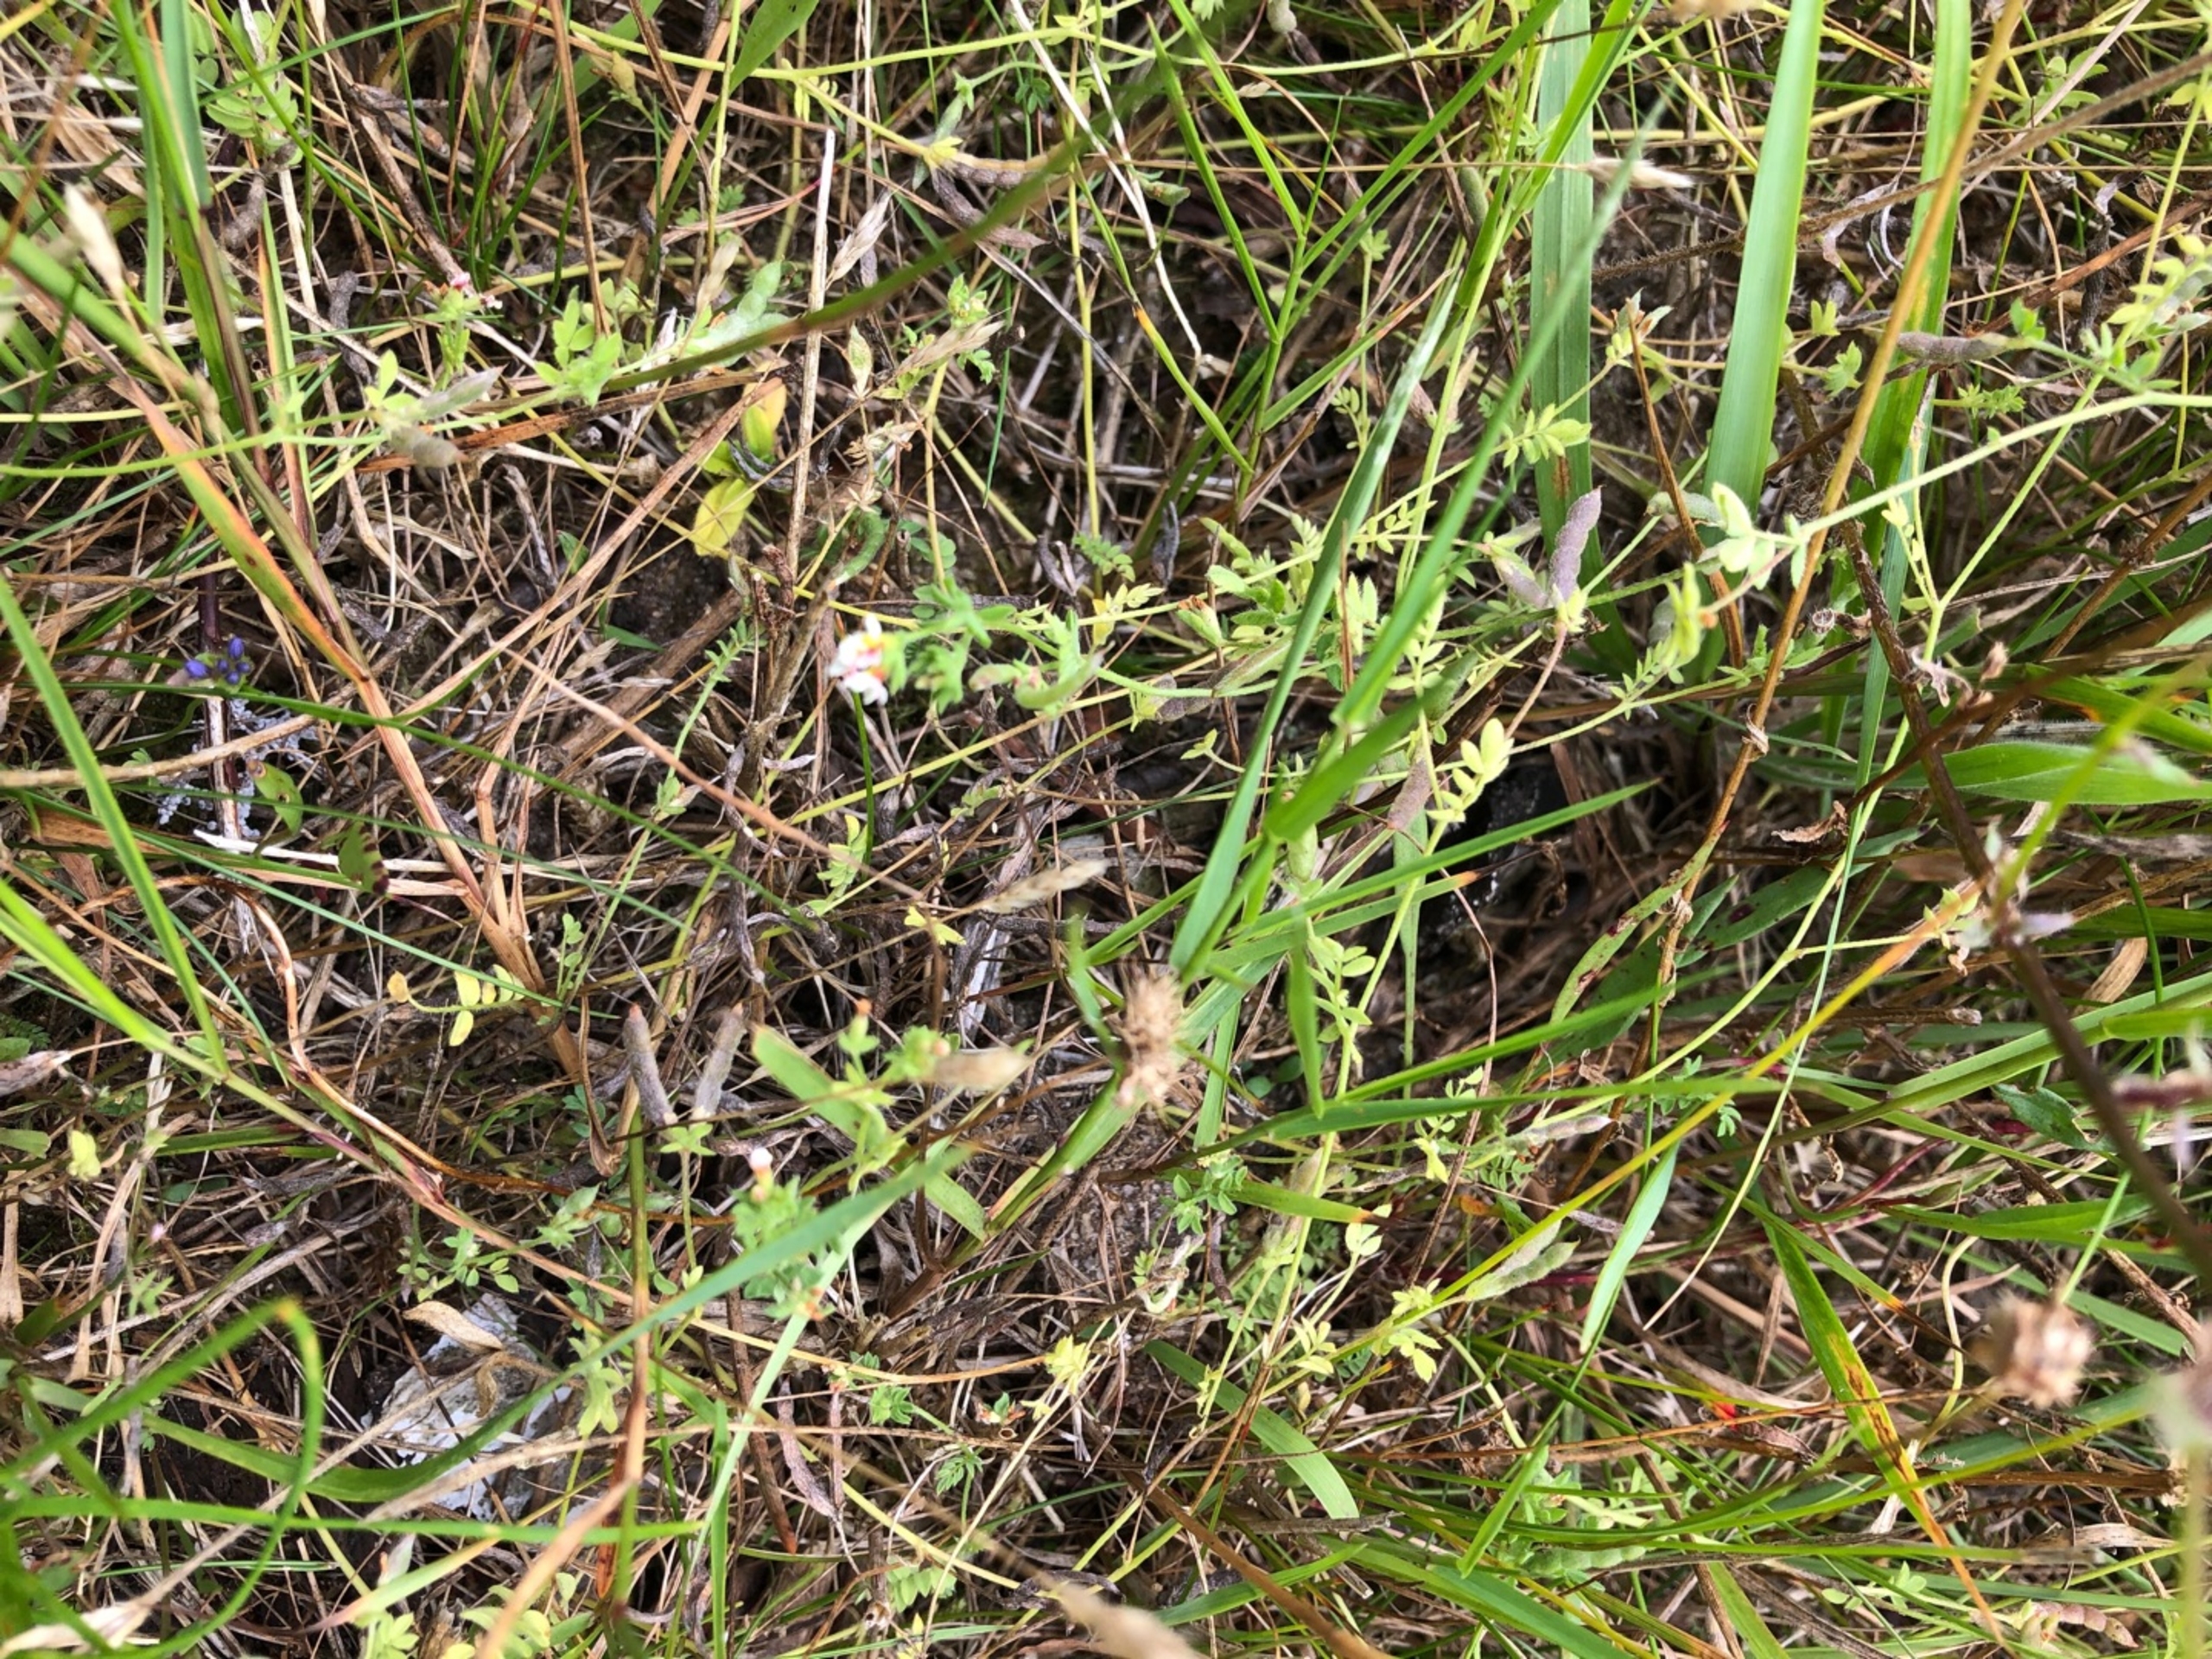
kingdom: Plantae
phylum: Tracheophyta
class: Magnoliopsida
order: Fabales
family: Fabaceae
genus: Ornithopus
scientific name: Ornithopus perpusillus
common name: Liden fugleklo
